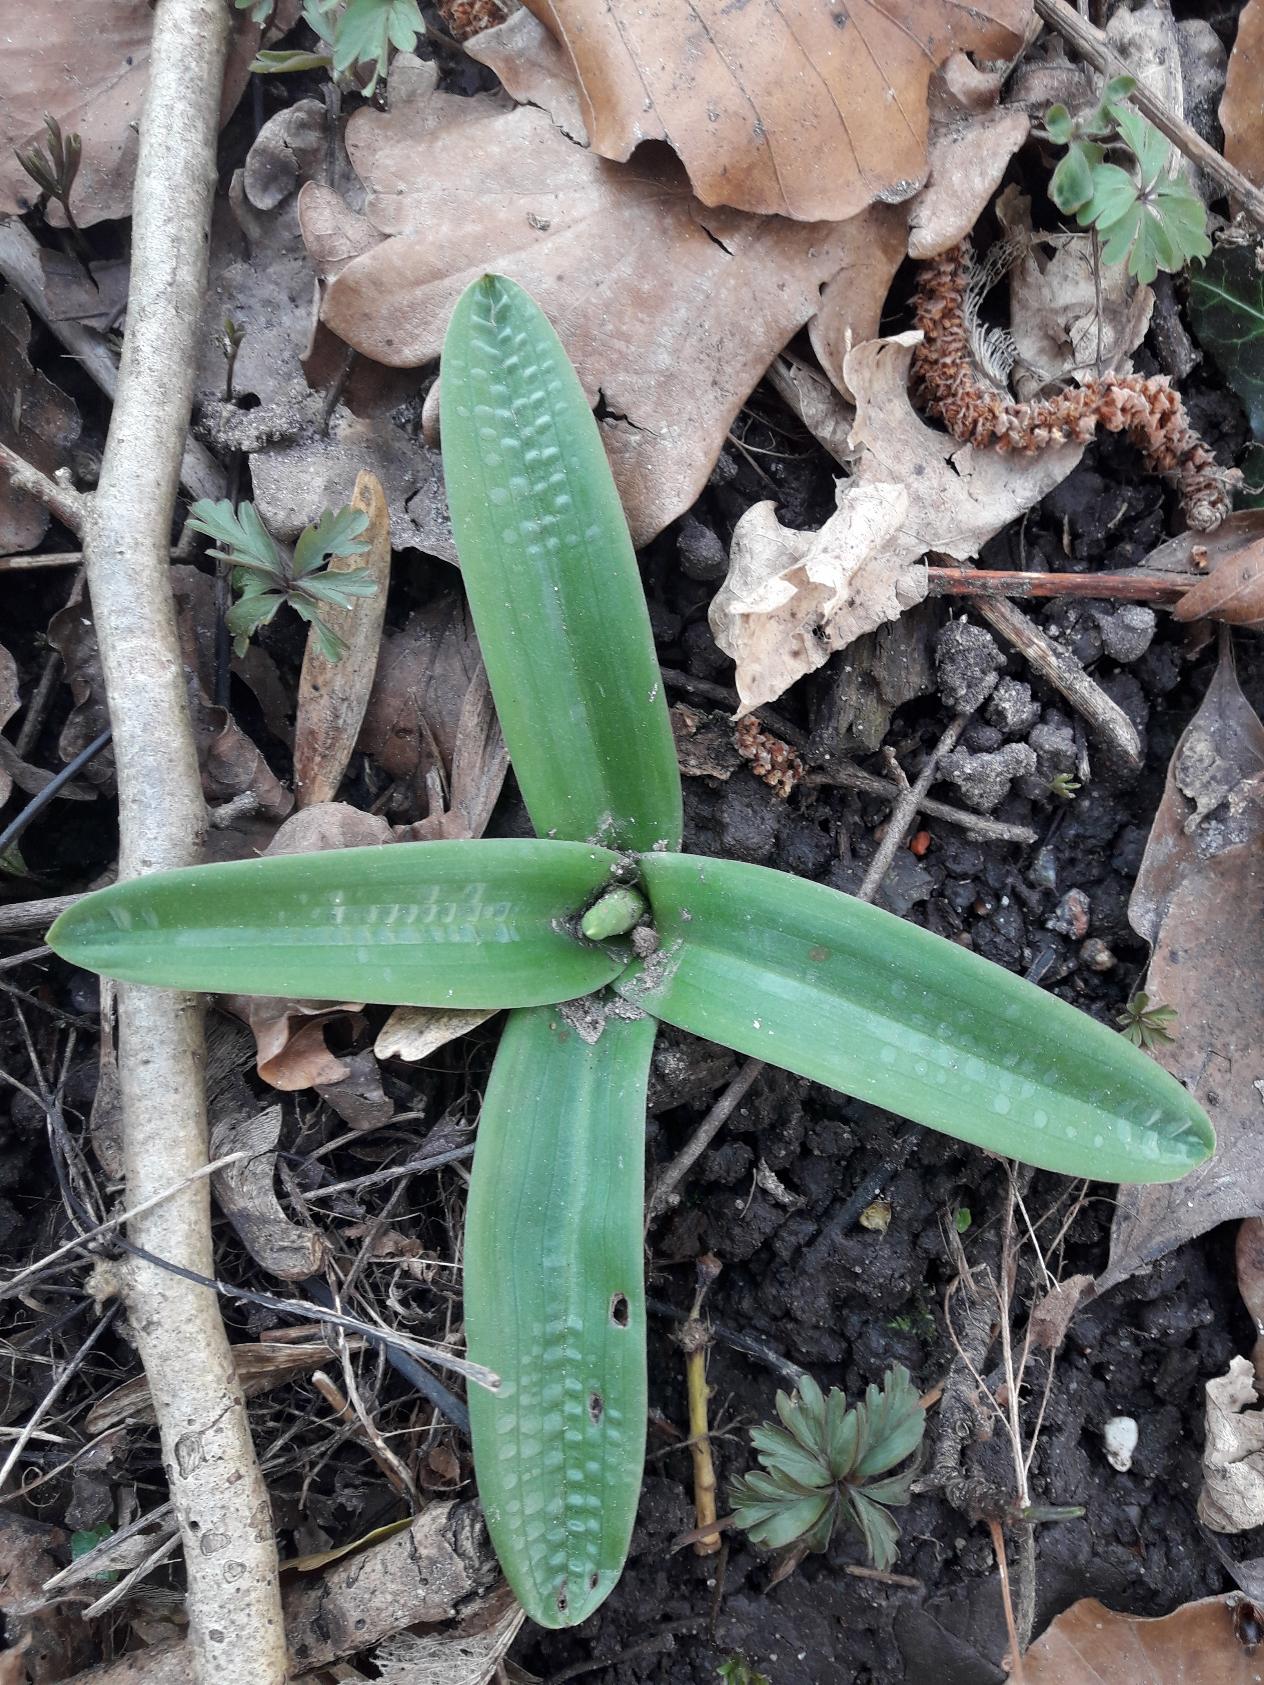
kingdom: Plantae
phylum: Tracheophyta
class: Liliopsida
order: Asparagales
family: Orchidaceae
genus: Orchis
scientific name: Orchis mascula
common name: Tyndakset gøgeurt
